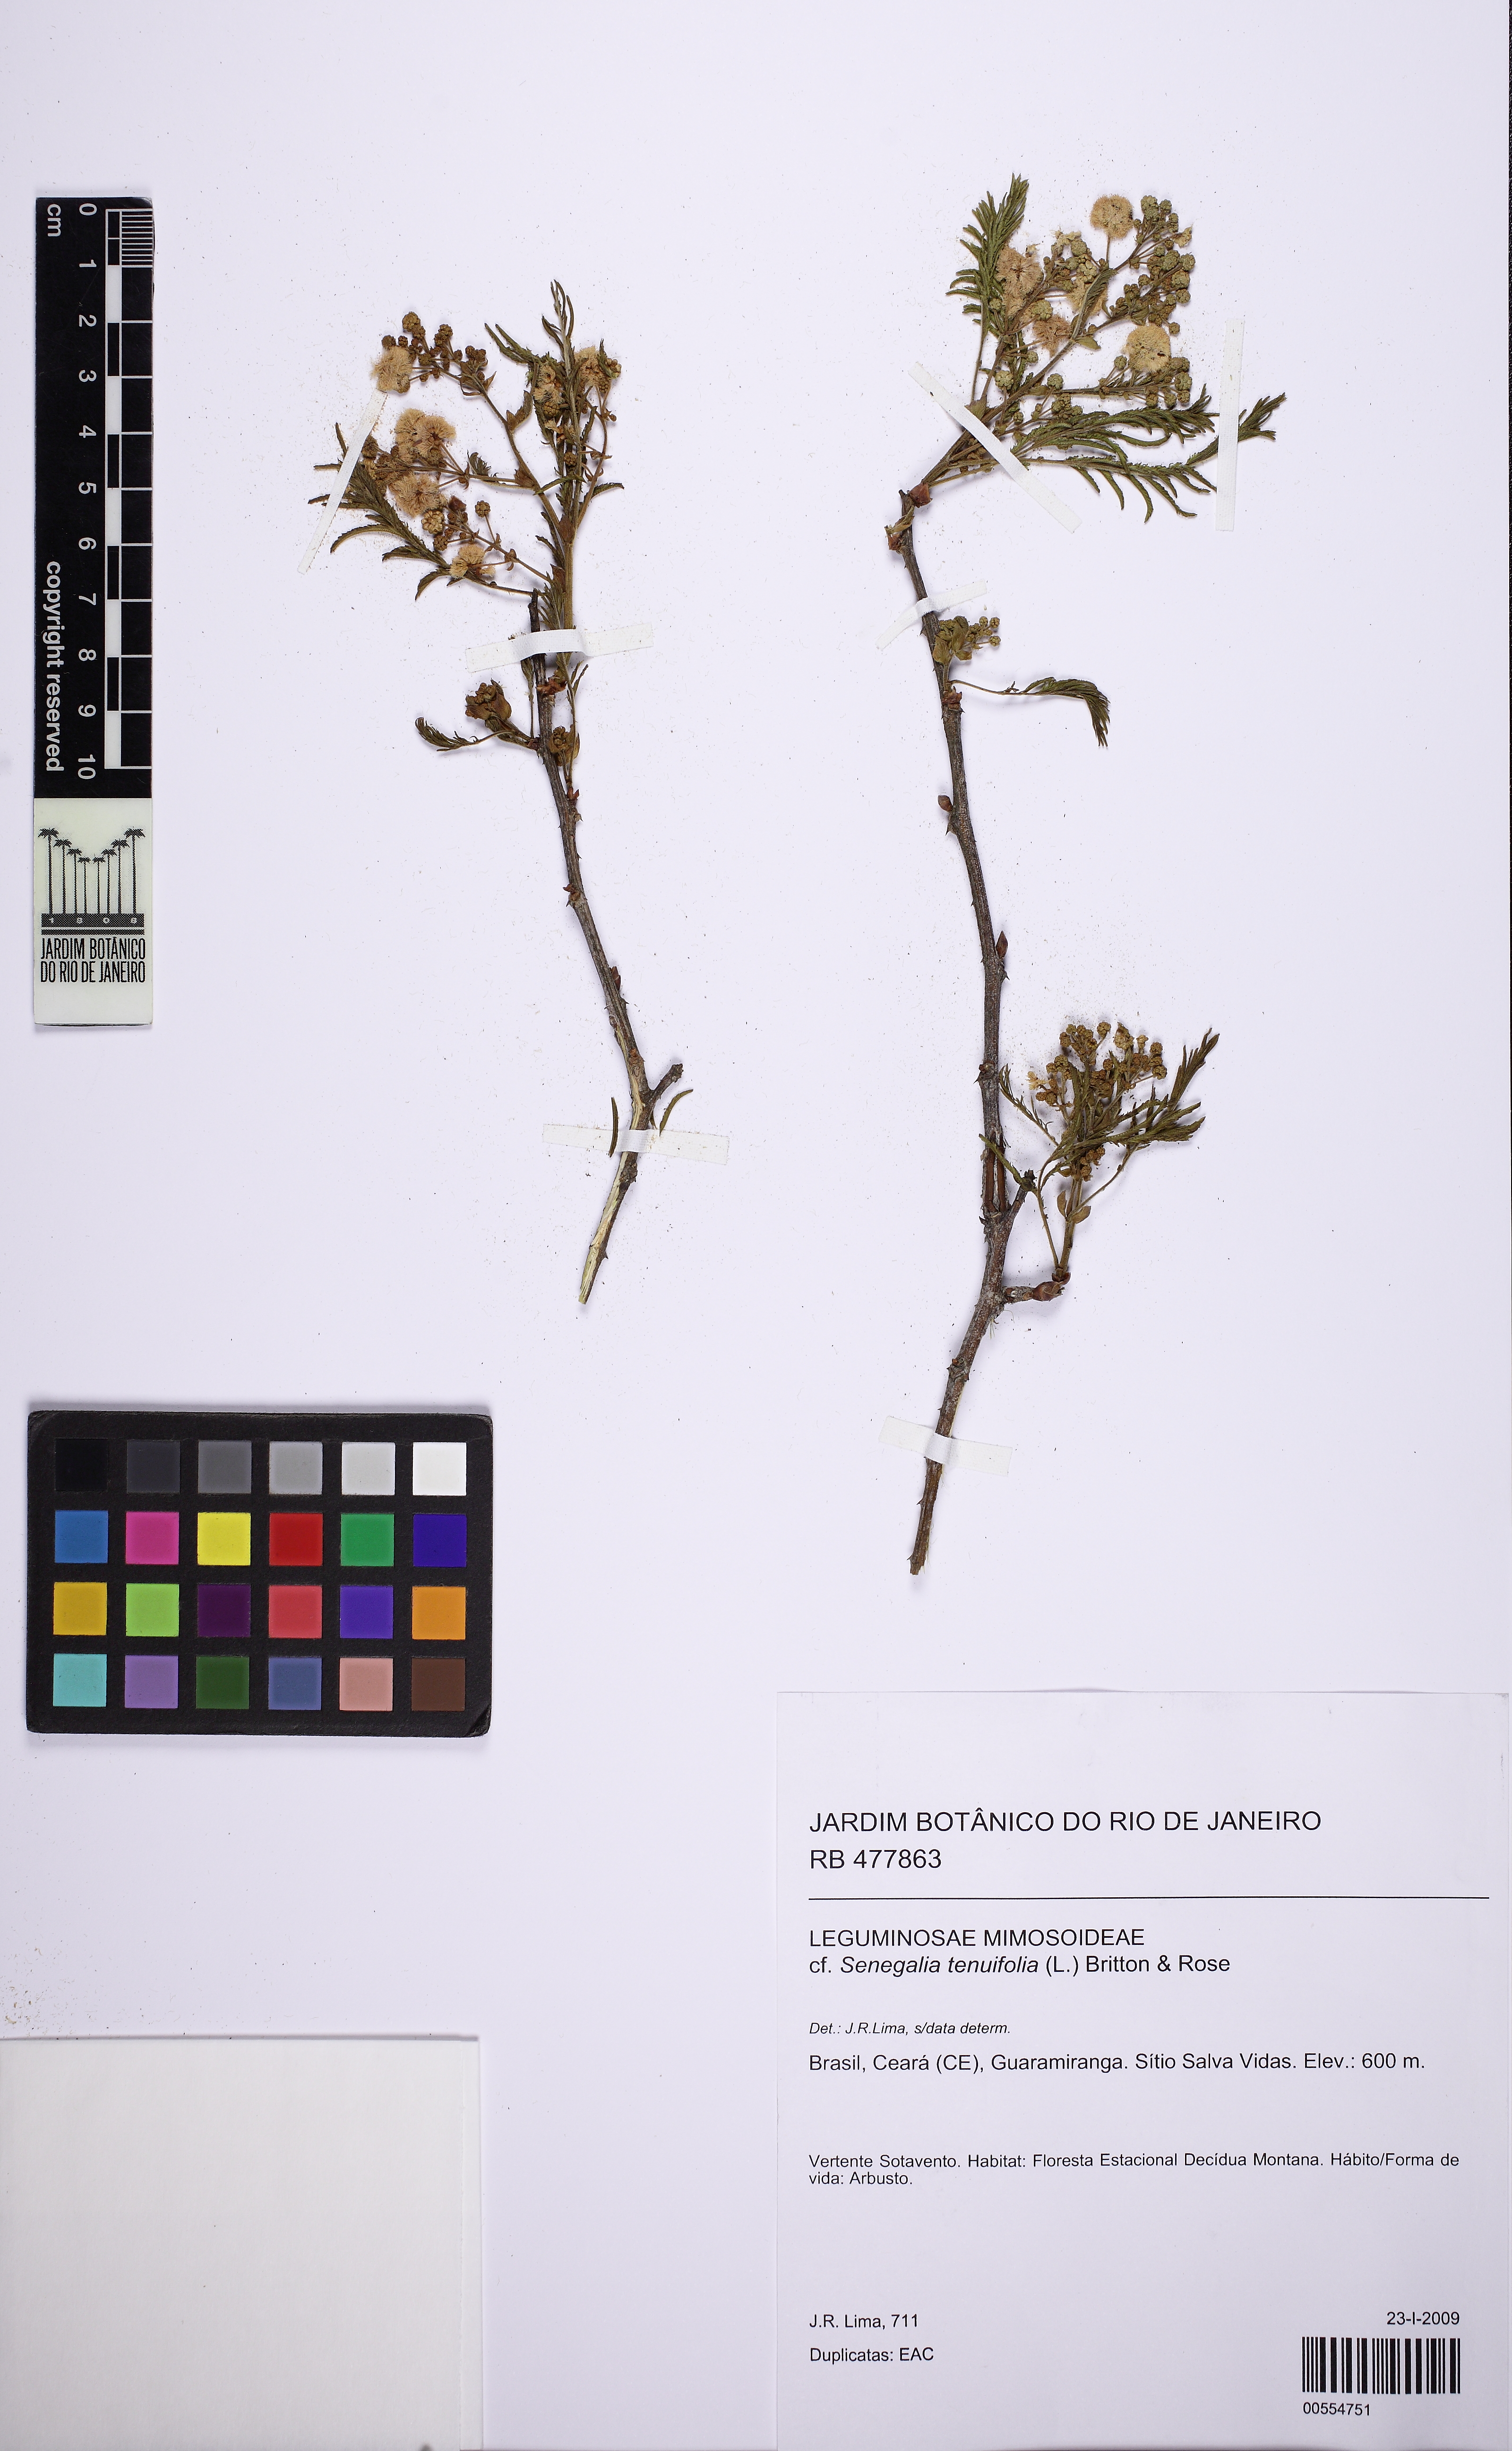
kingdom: Plantae
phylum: Tracheophyta
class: Magnoliopsida
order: Fabales
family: Fabaceae
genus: Senegalia
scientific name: Senegalia tenuifolia
